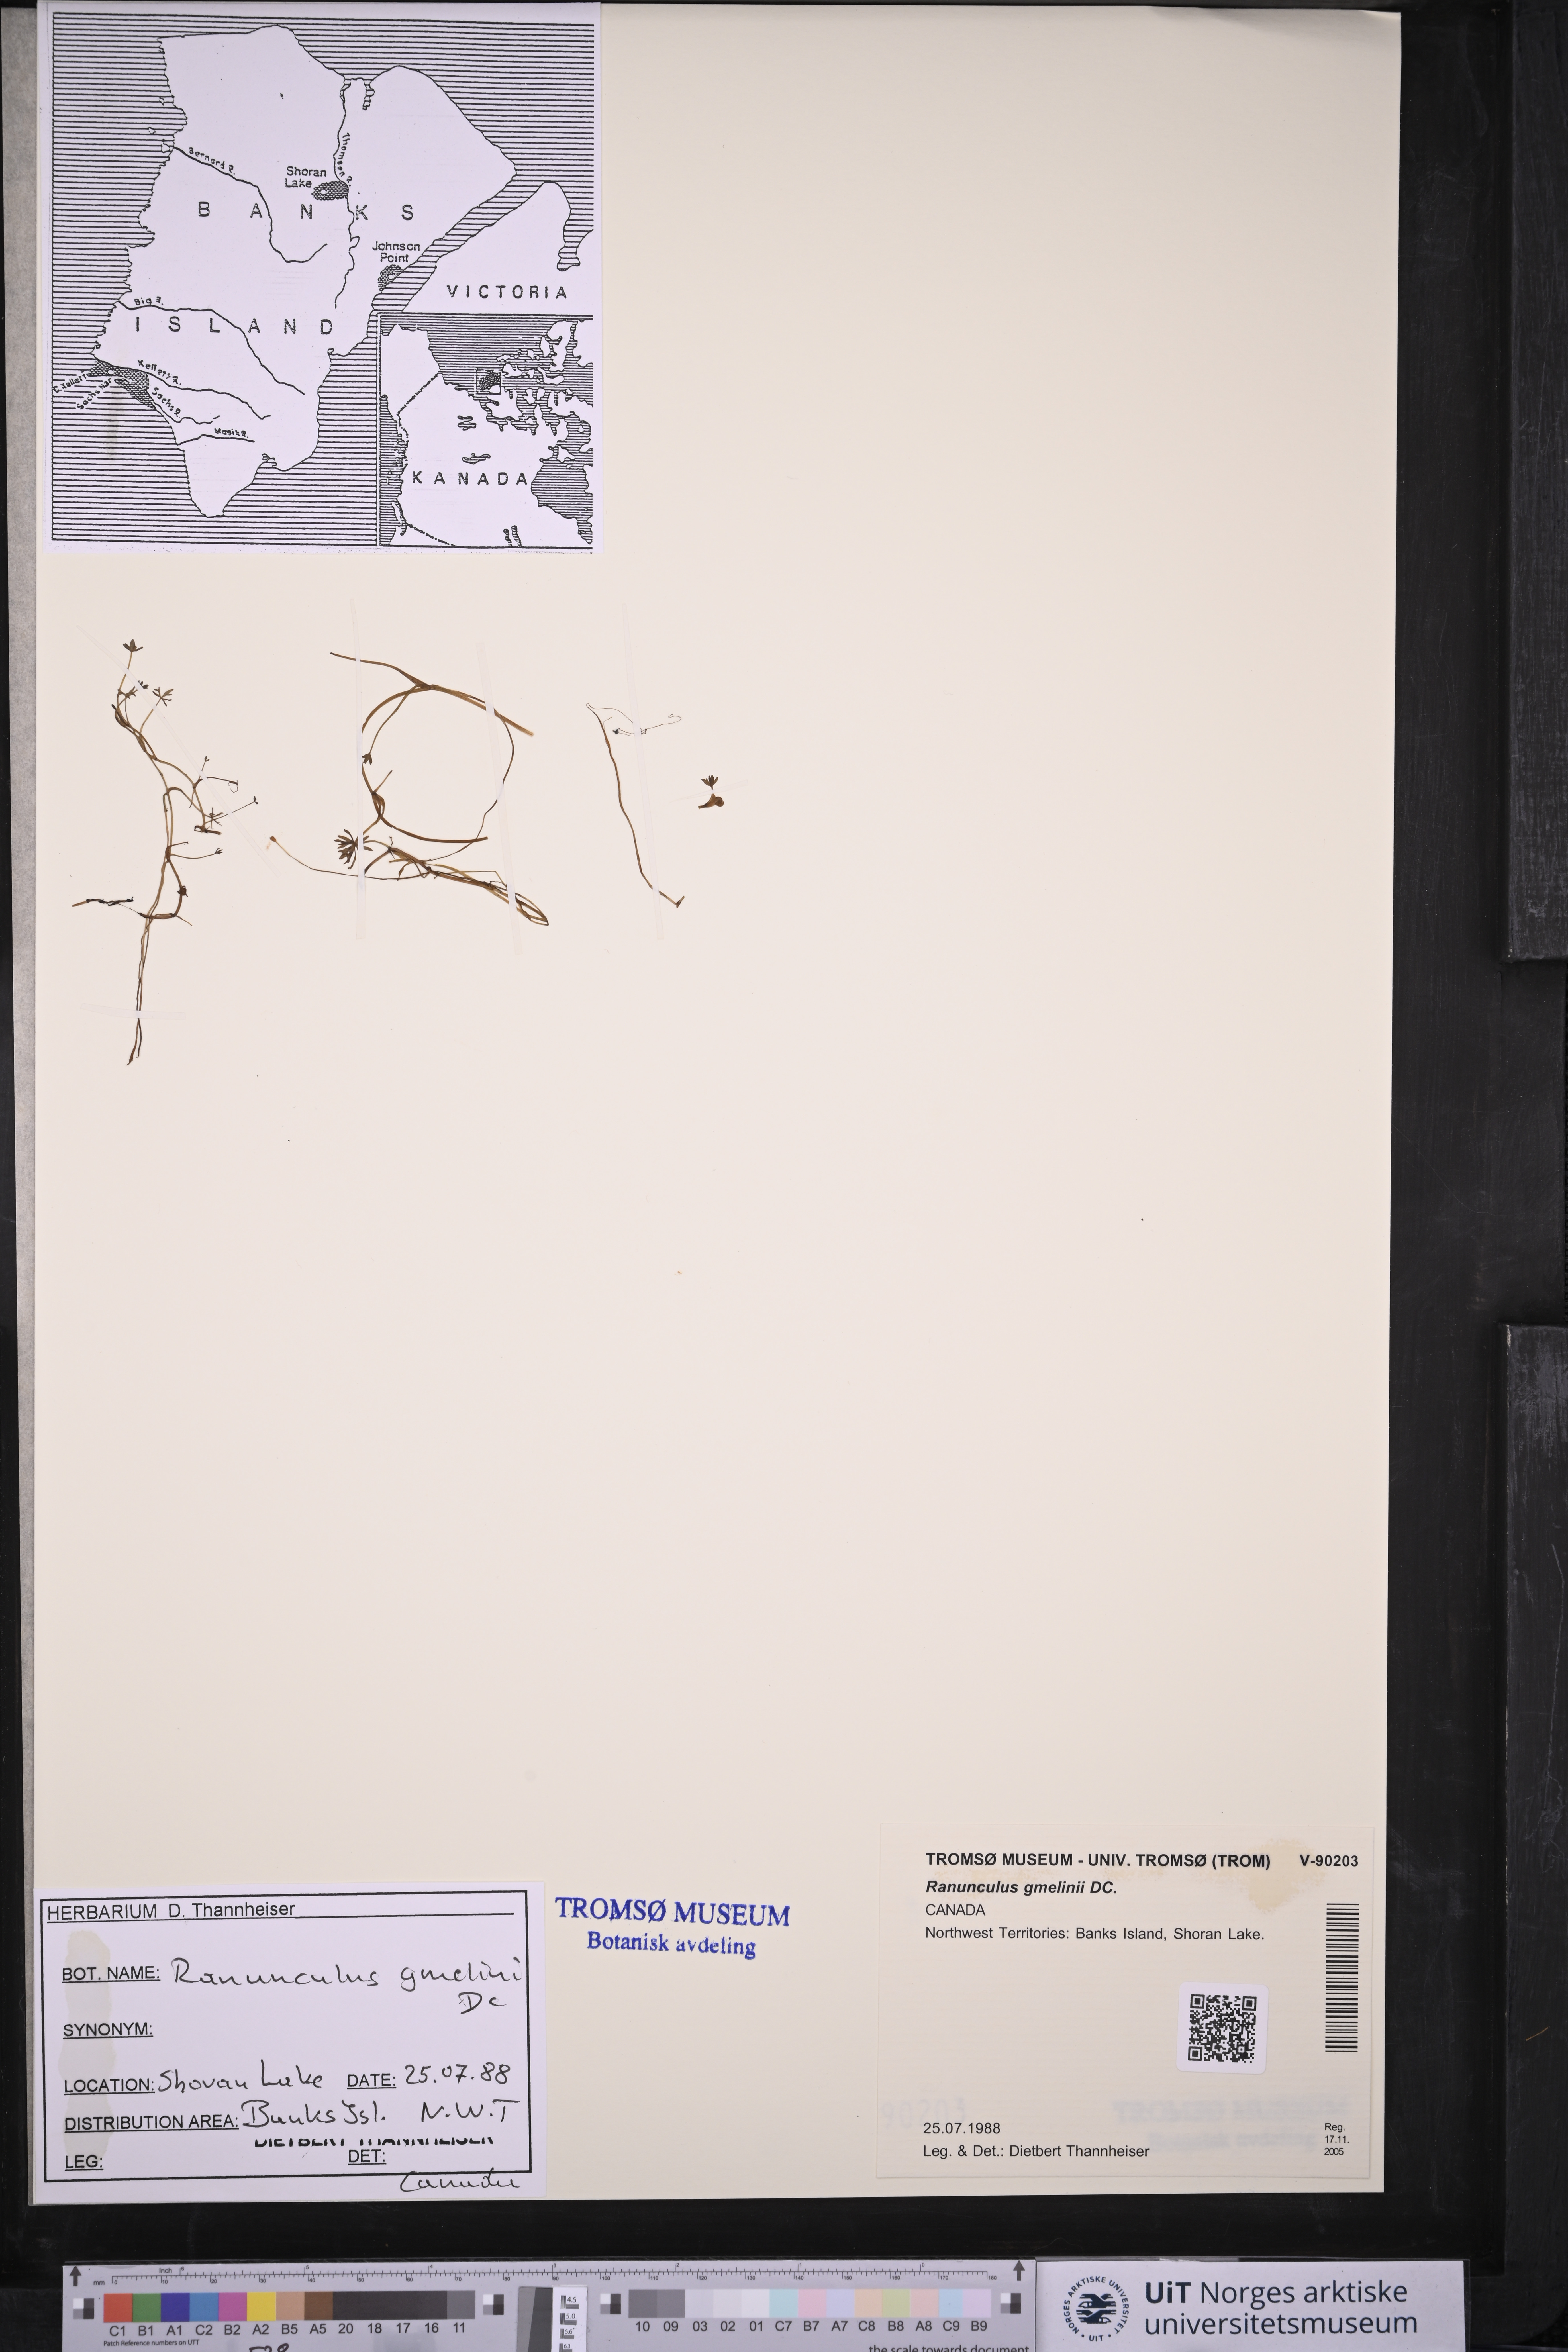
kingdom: Plantae
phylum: Tracheophyta
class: Magnoliopsida
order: Ranunculales
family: Ranunculaceae
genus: Ranunculus
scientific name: Ranunculus gmelinii
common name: Gmelin's buttercup
